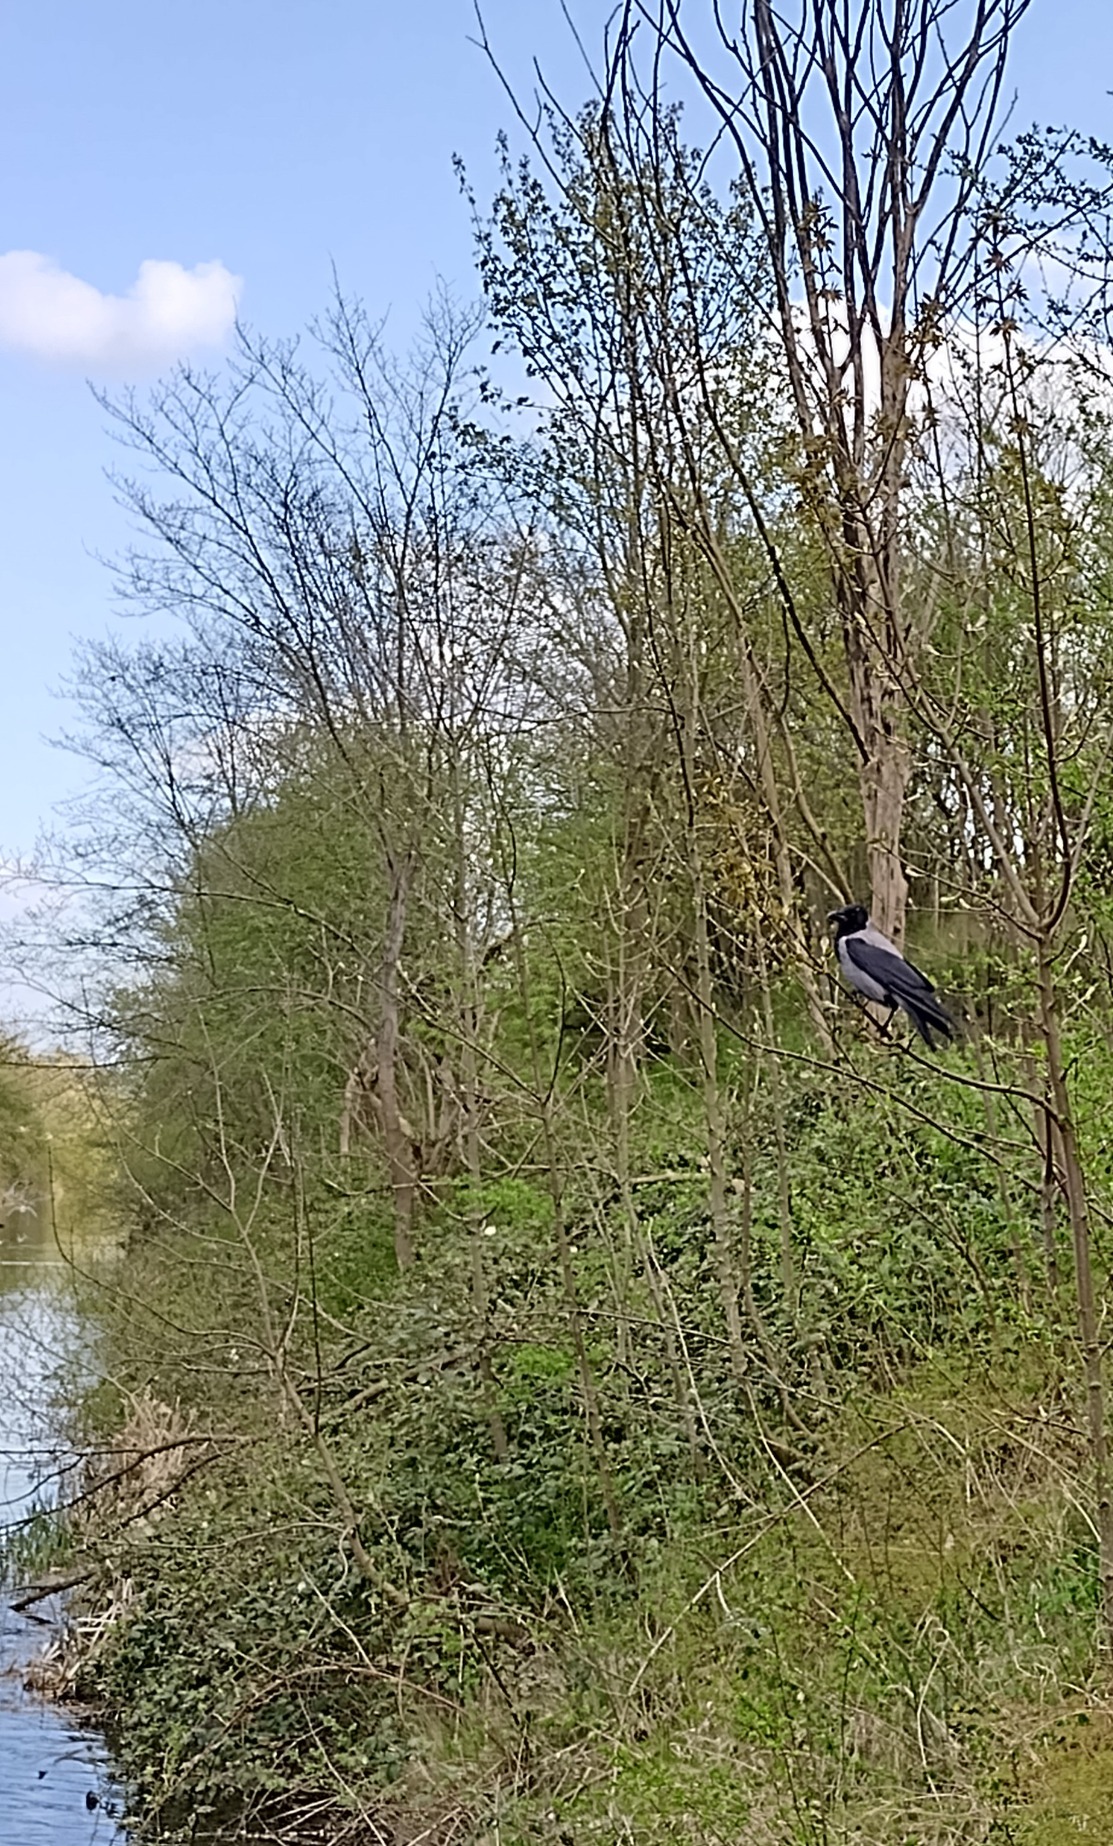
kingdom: Animalia
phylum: Chordata
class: Aves
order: Passeriformes
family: Corvidae
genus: Corvus
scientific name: Corvus cornix
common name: Gråkrage
